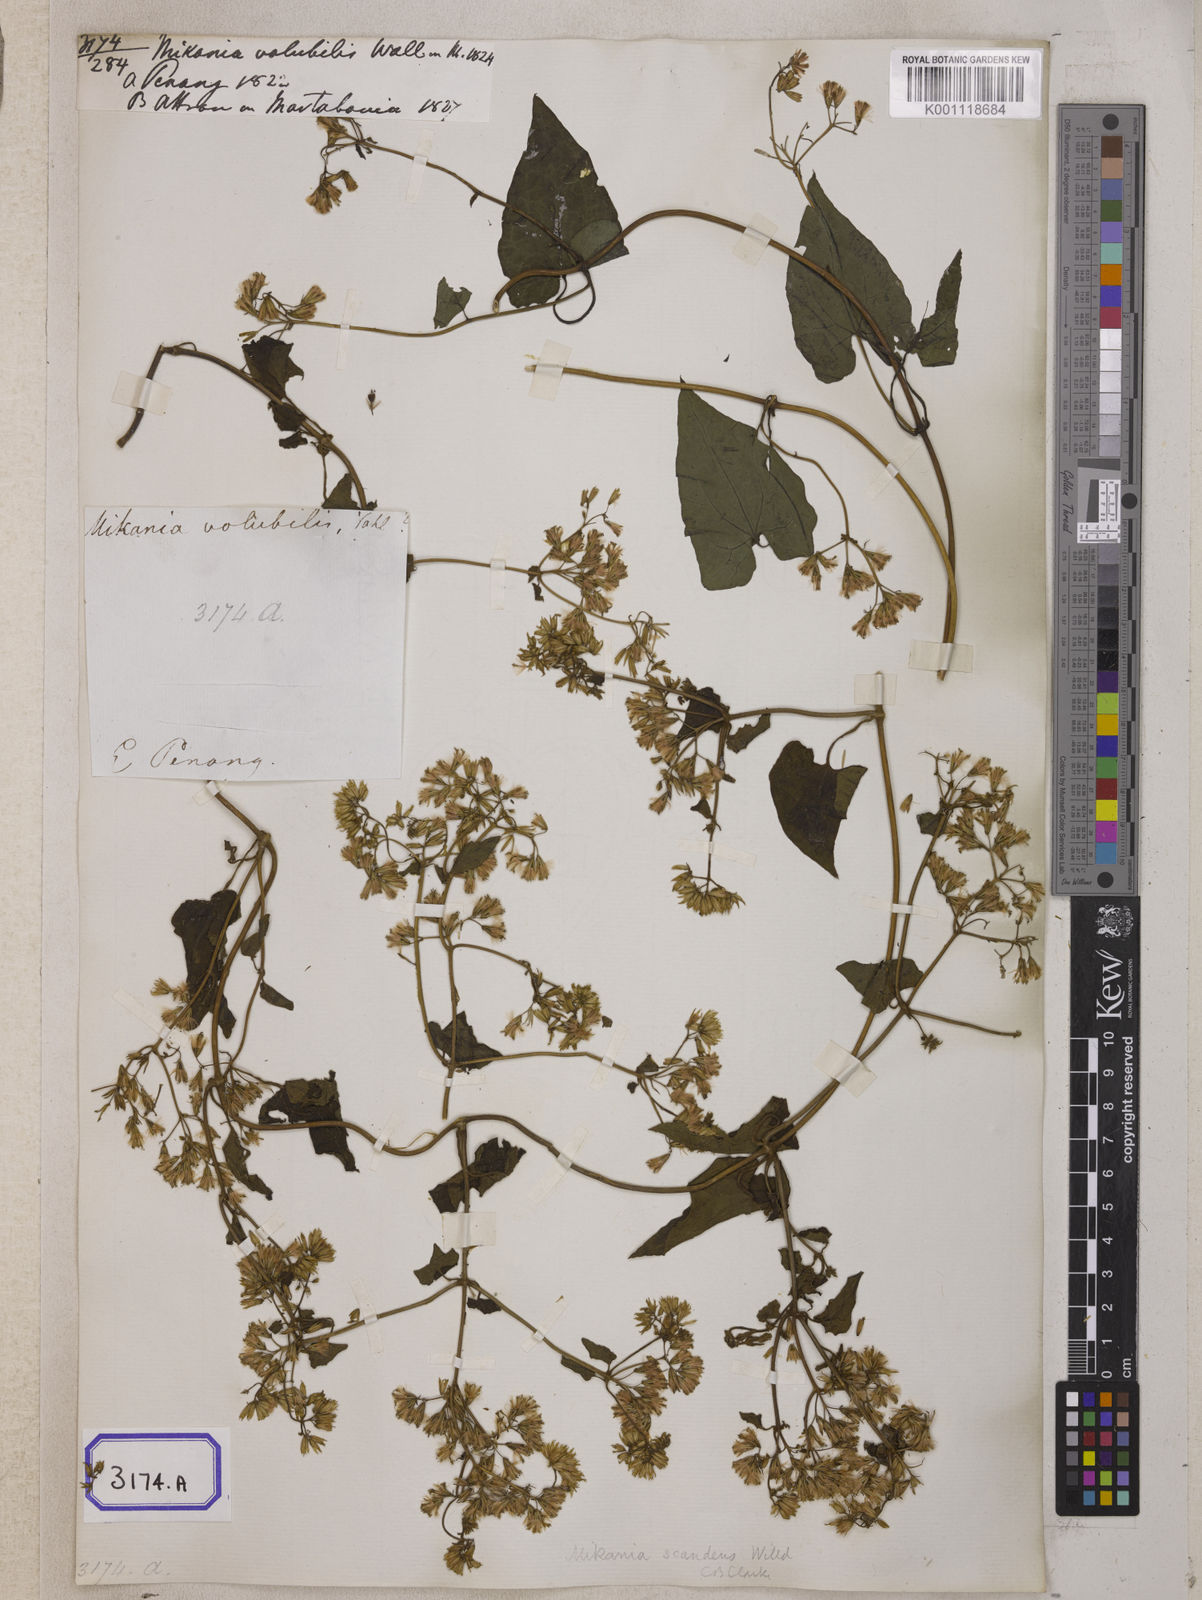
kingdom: Plantae
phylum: Tracheophyta
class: Magnoliopsida
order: Asterales
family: Asteraceae
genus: Mikania
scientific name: Mikania
